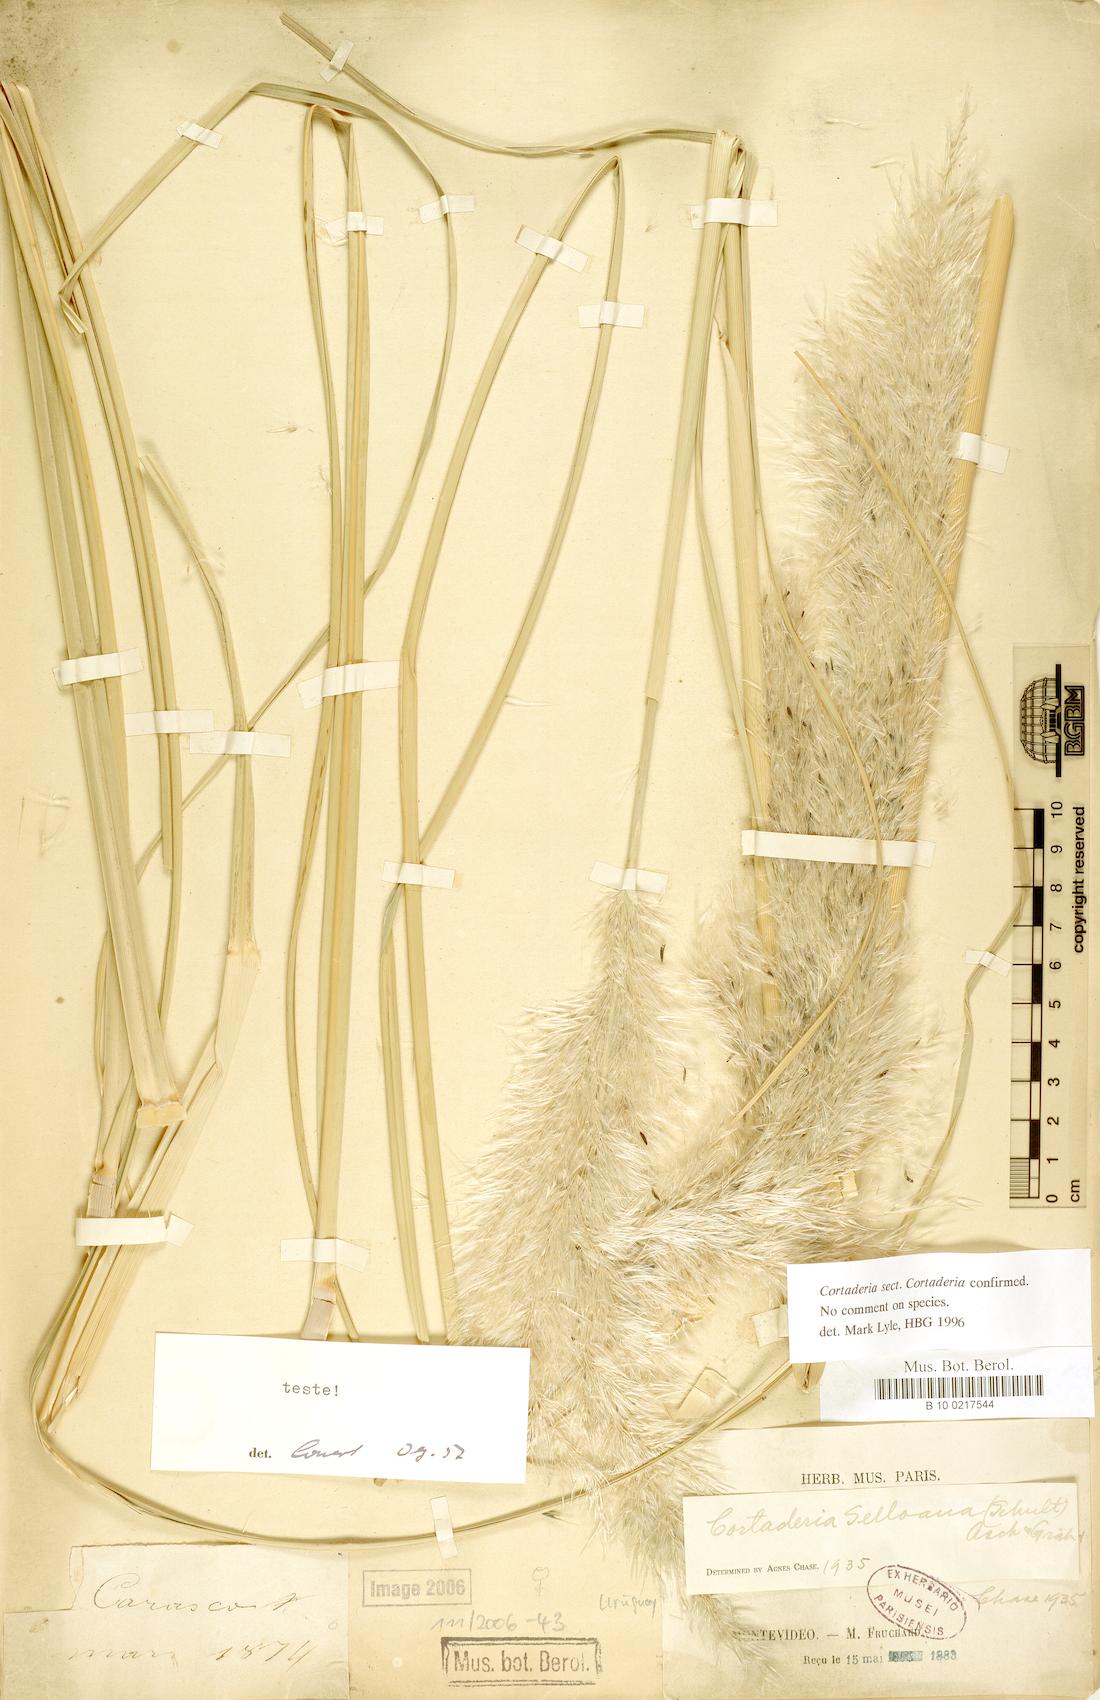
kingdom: Plantae
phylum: Tracheophyta
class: Liliopsida
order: Poales
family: Poaceae
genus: Cortaderia
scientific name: Cortaderia selloana
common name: Uruguayan pampas grass
